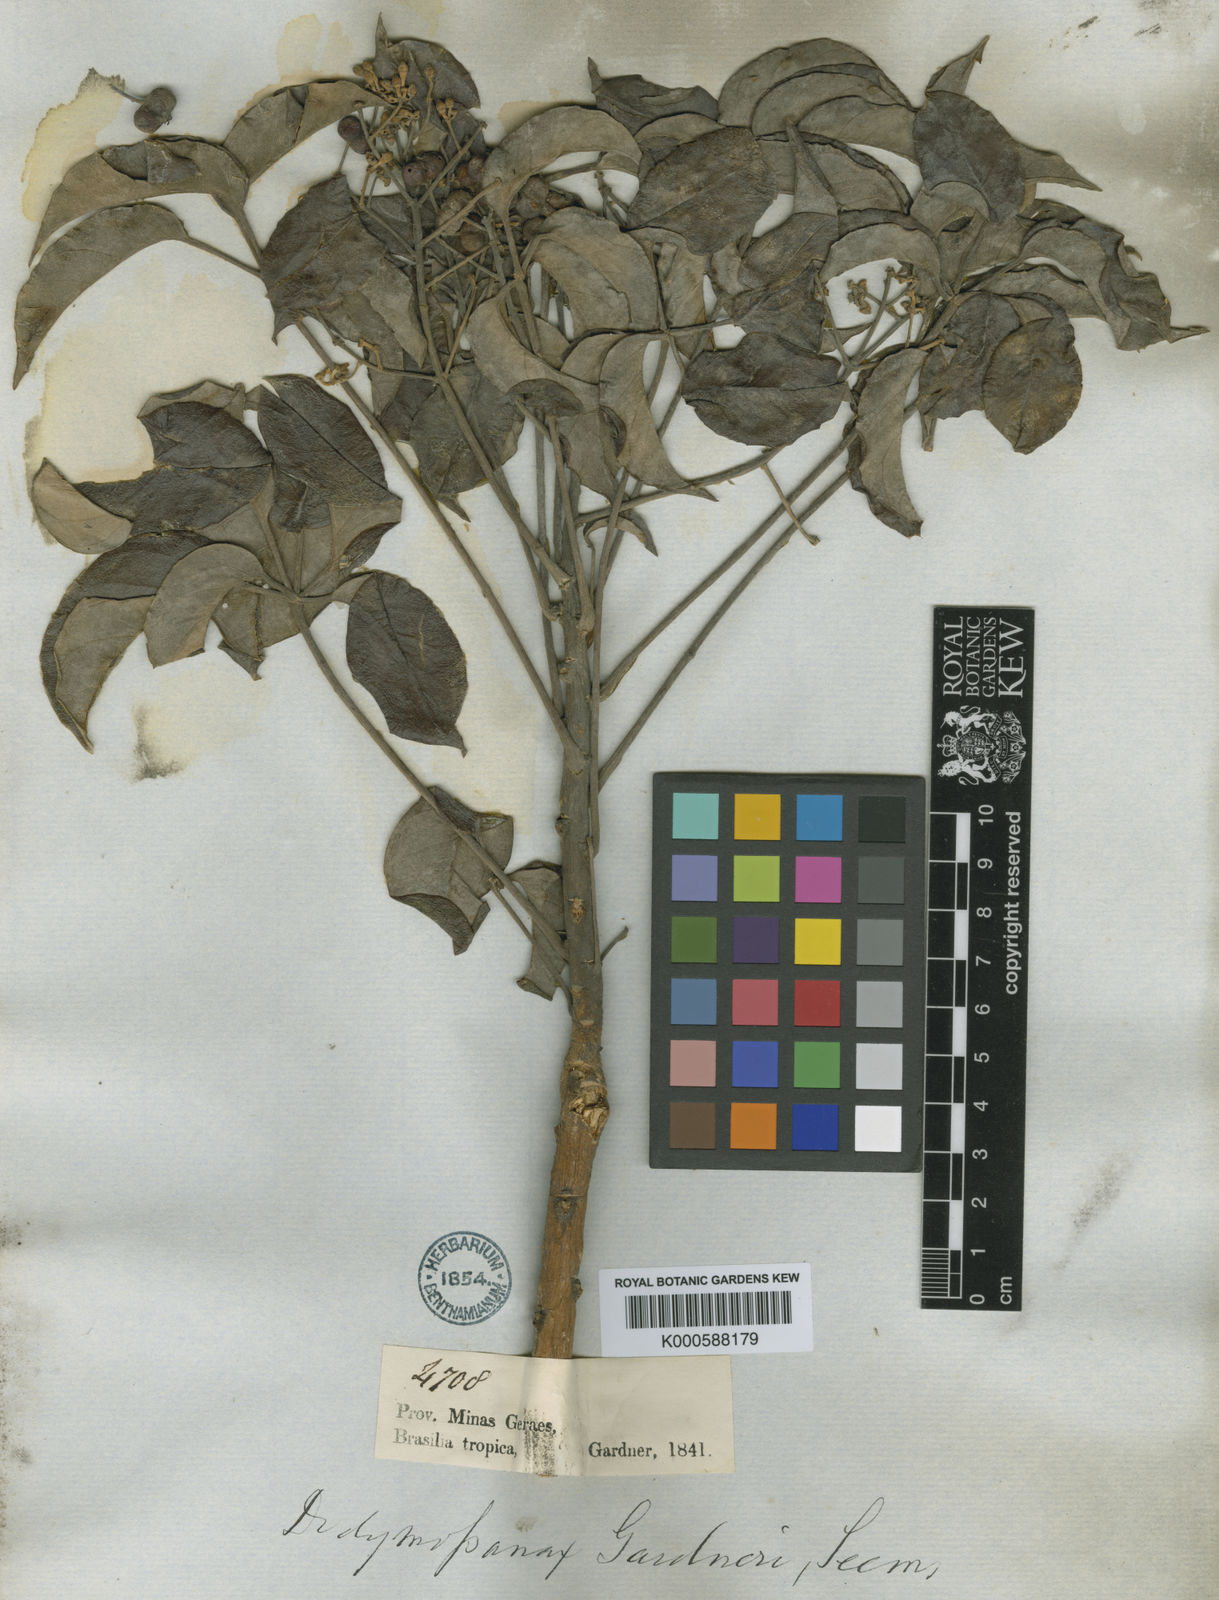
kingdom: Plantae
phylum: Tracheophyta
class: Magnoliopsida
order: Apiales
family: Araliaceae
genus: Didymopanax
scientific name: Didymopanax gardneri
